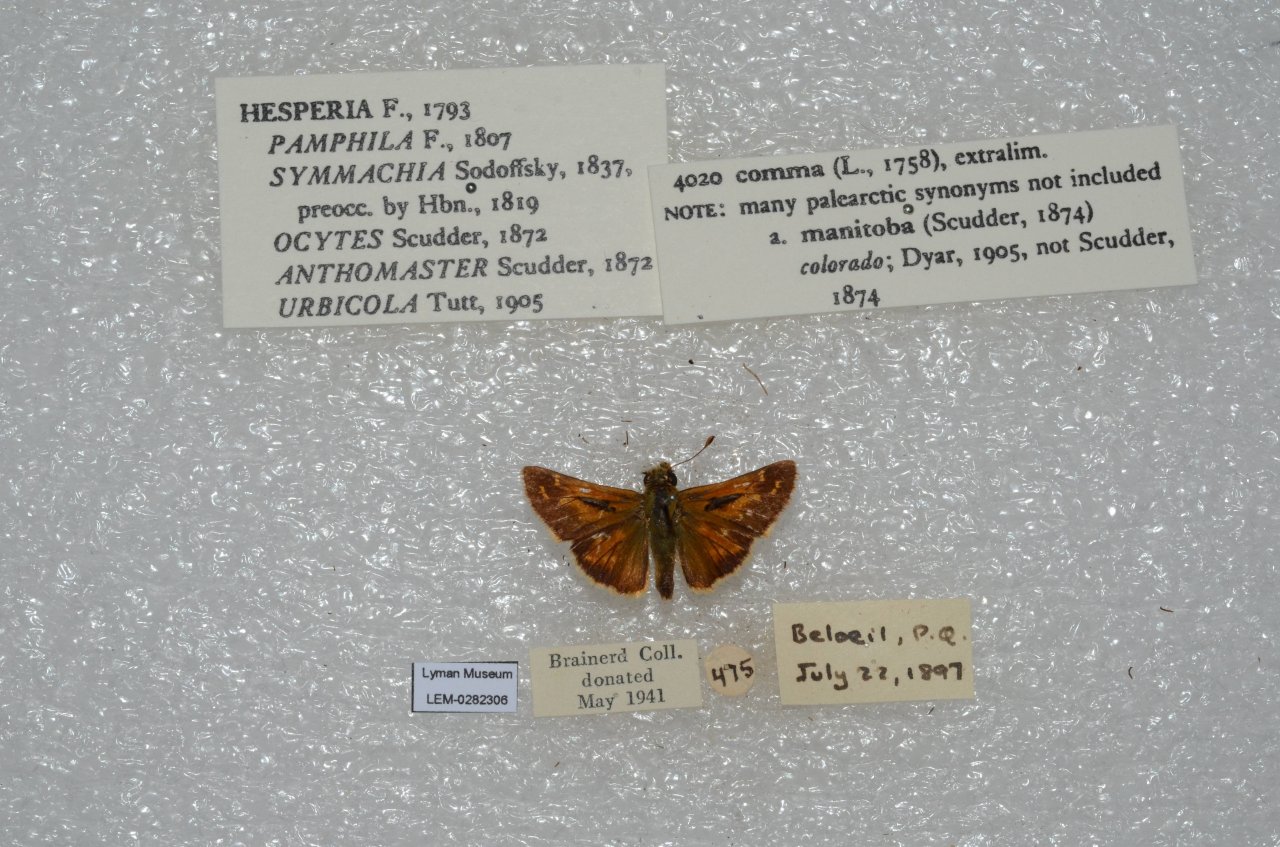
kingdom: Animalia
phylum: Arthropoda
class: Insecta
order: Lepidoptera
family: Hesperiidae
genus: Hesperia
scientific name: Hesperia comma
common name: Common Branded Skipper
